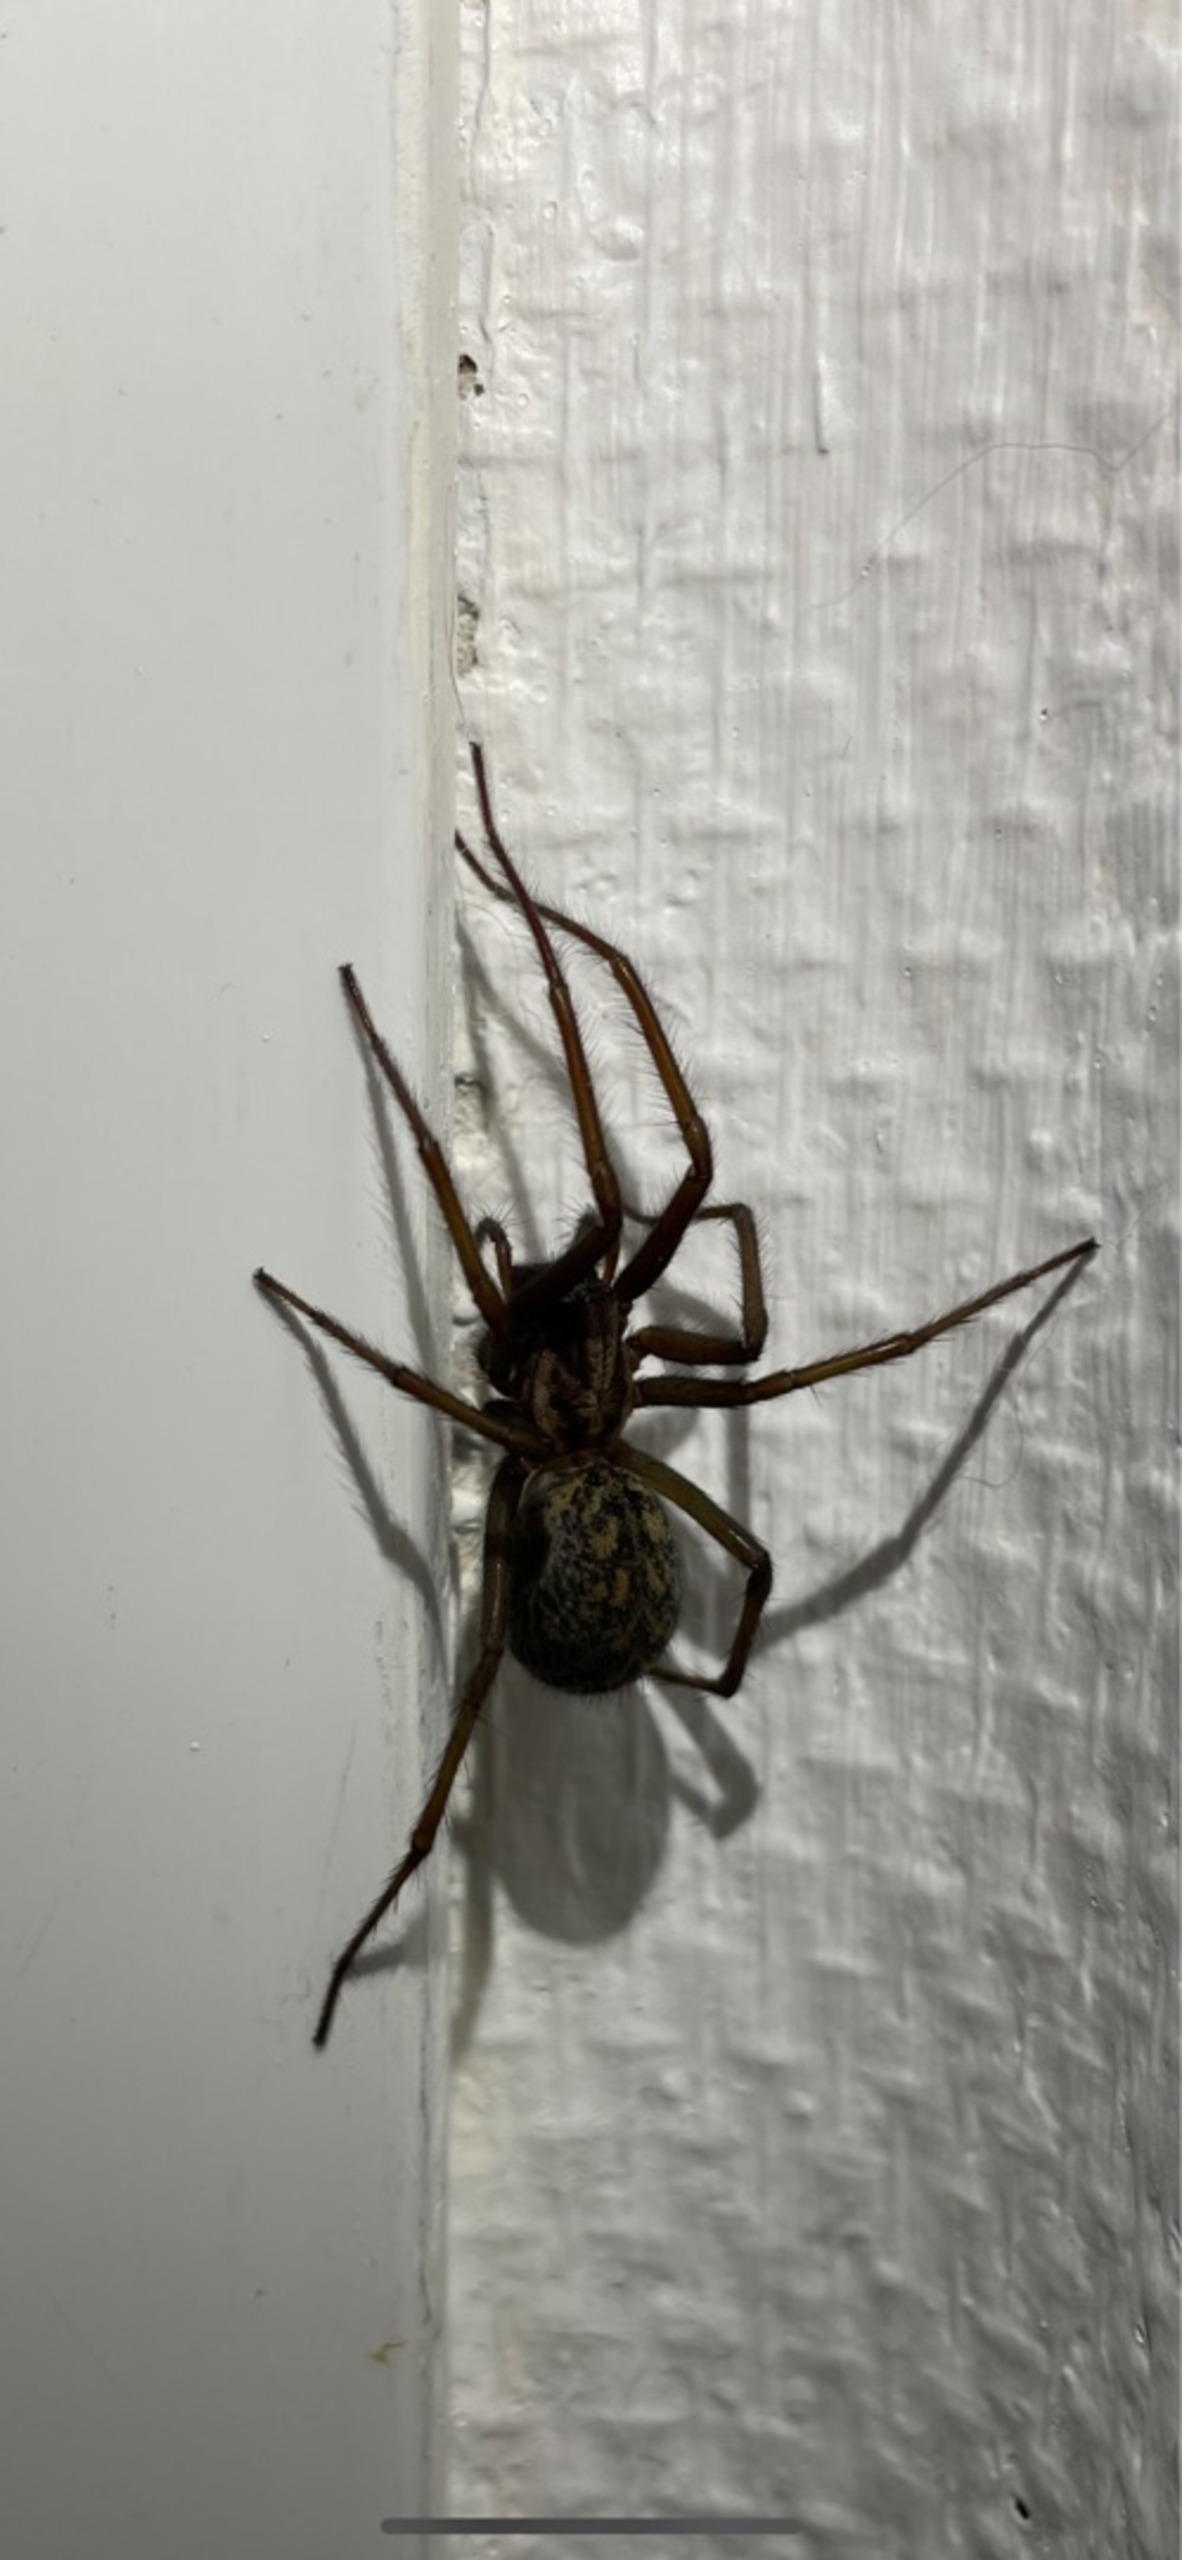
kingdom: Animalia
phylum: Arthropoda
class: Arachnida
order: Araneae
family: Agelenidae
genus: Eratigena
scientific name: Eratigena atrica
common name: Stor husedderkop
